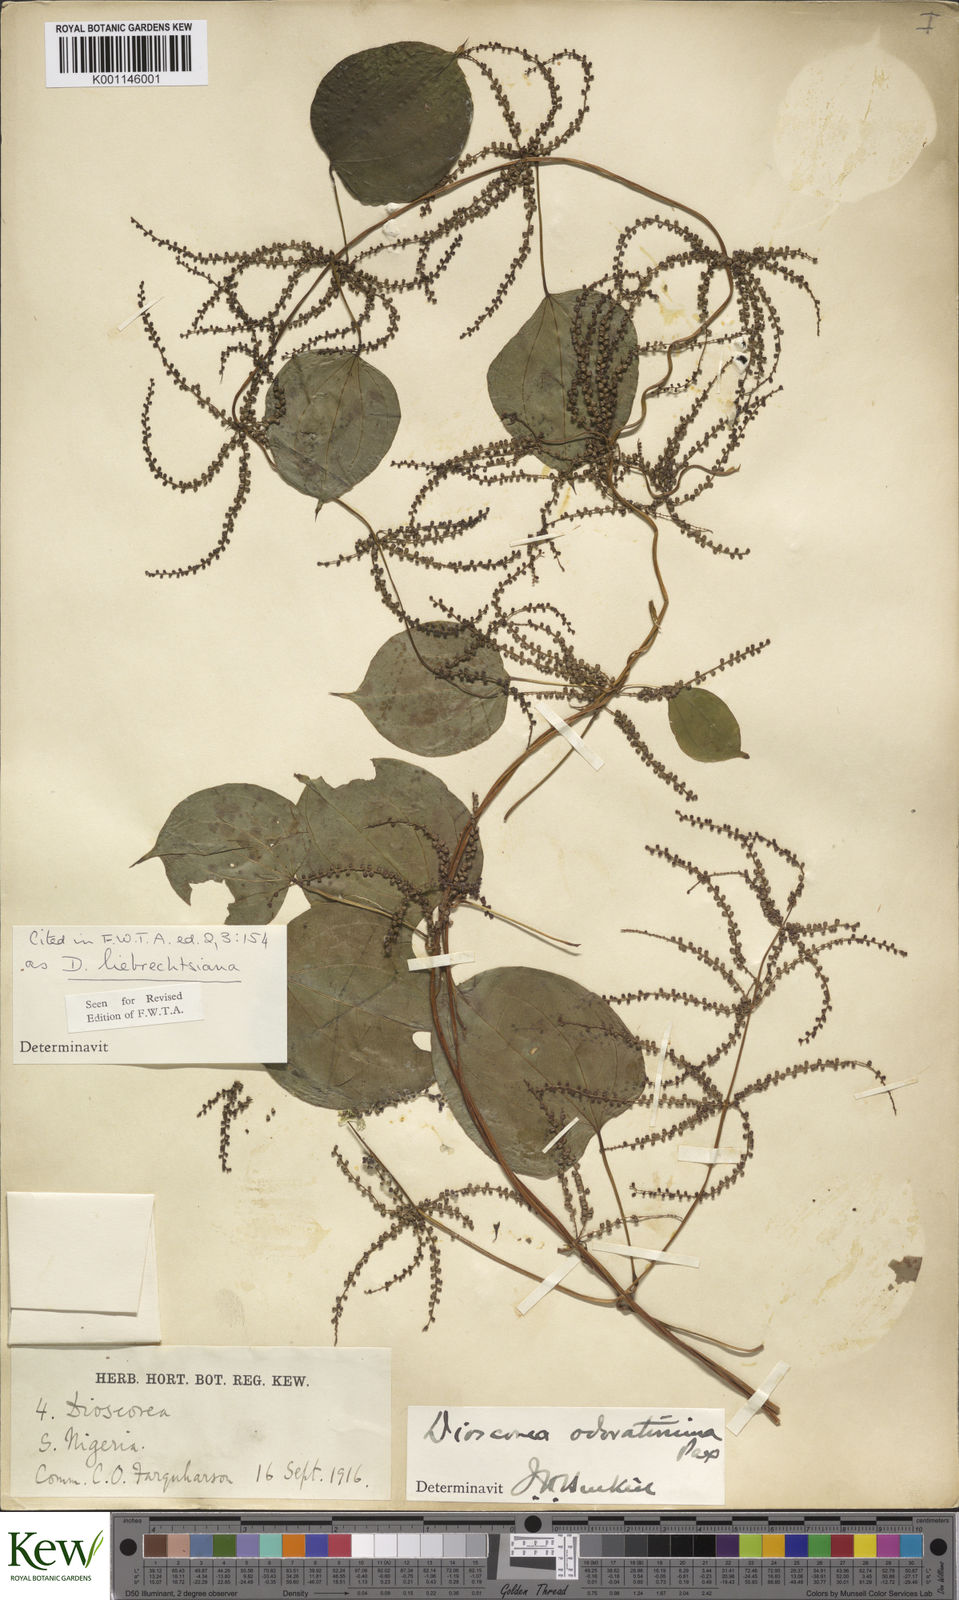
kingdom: Plantae
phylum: Tracheophyta
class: Liliopsida
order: Dioscoreales
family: Dioscoreaceae
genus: Dioscorea
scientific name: Dioscorea praehensilis
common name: Bush yam
